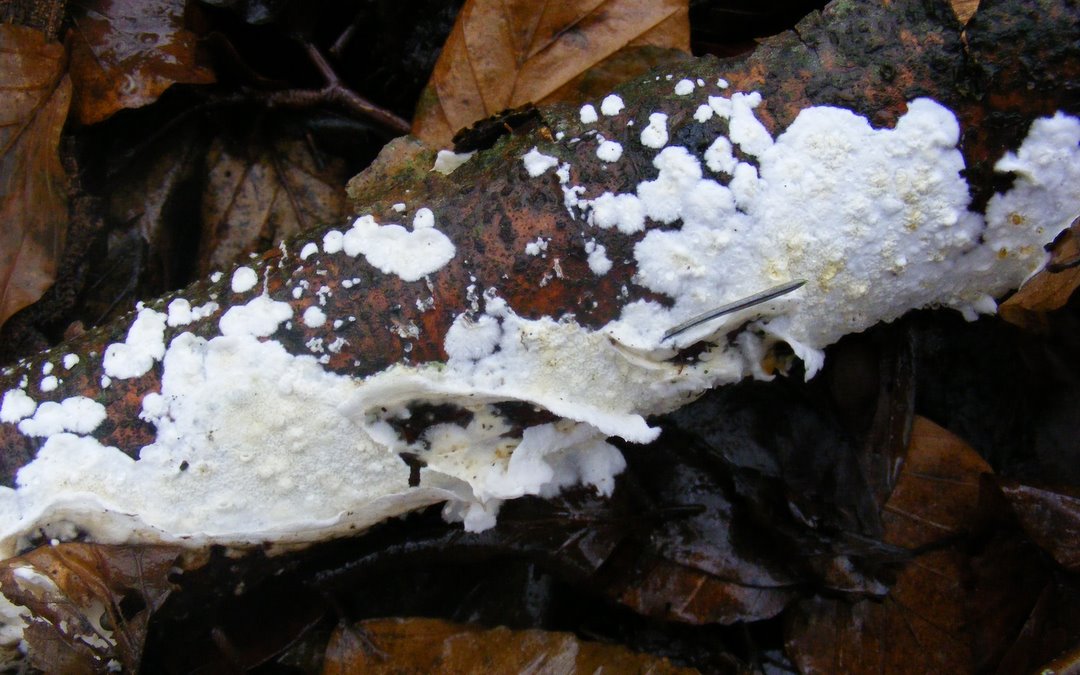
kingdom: Fungi
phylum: Basidiomycota
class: Agaricomycetes
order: Polyporales
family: Irpicaceae
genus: Byssomerulius
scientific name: Byssomerulius corium
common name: læder-åresvamp
